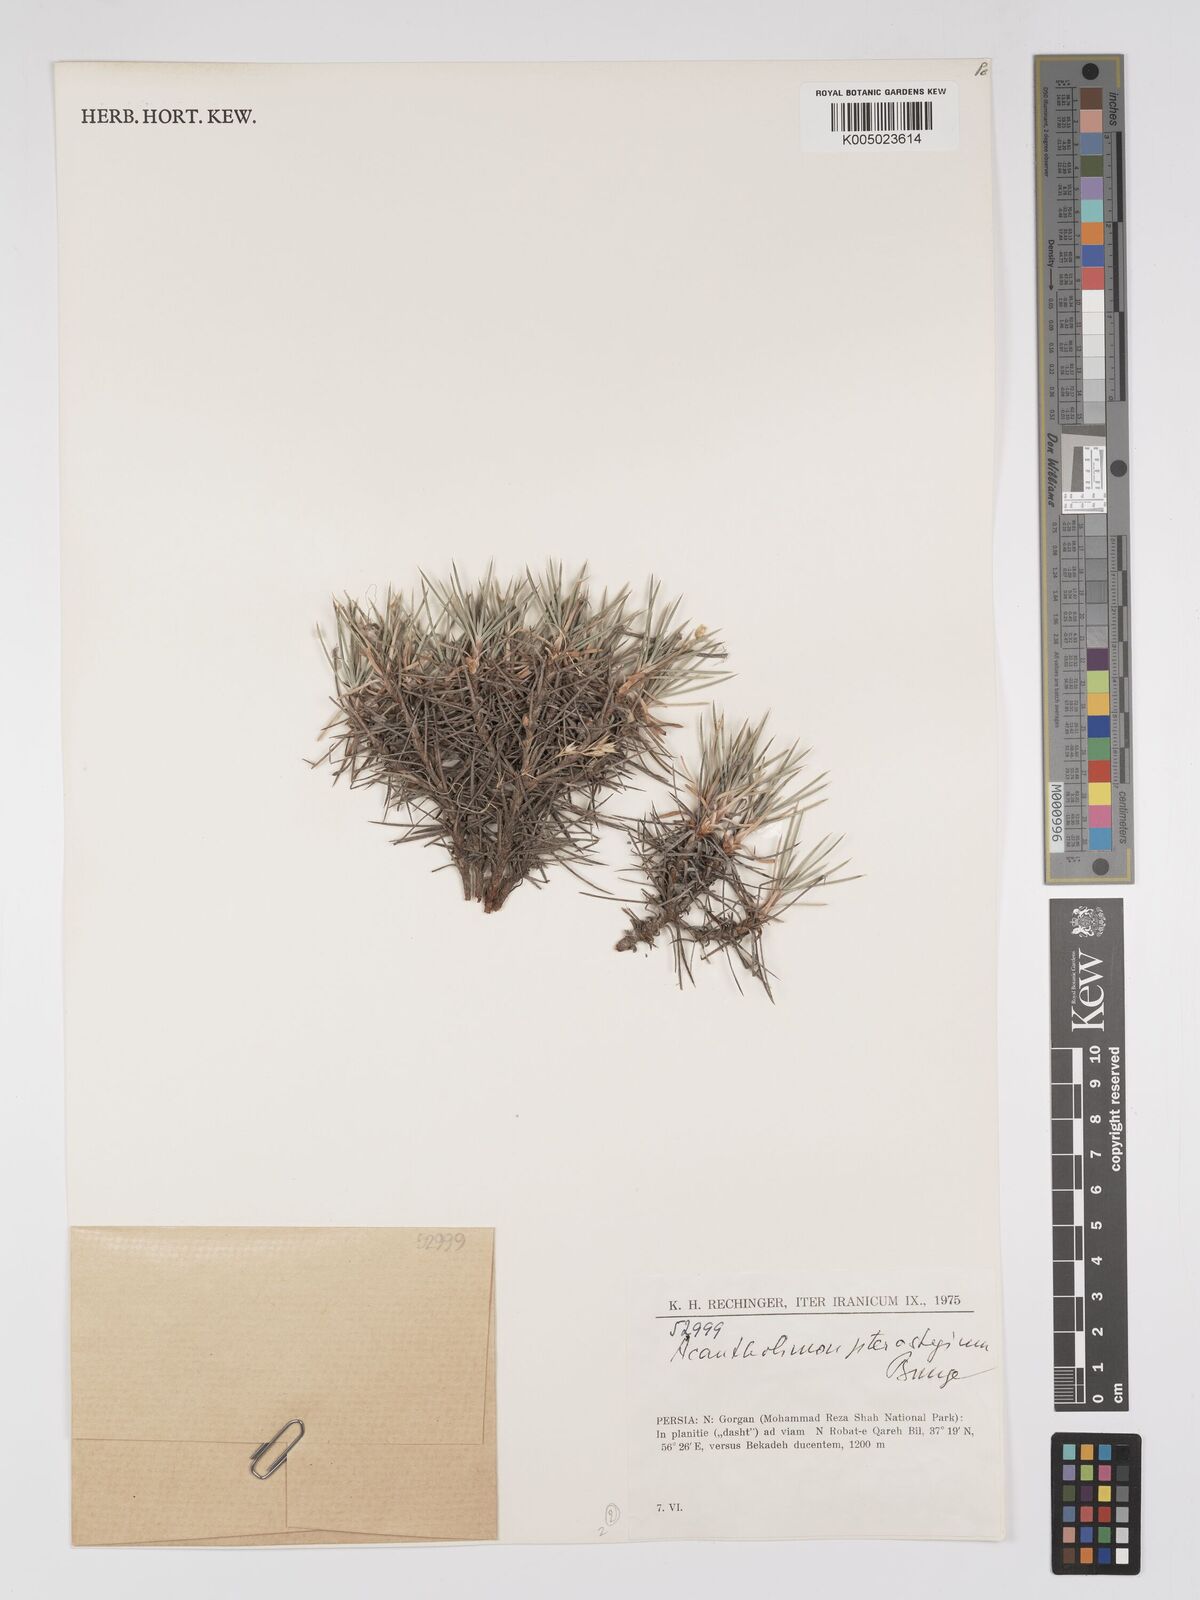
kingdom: Plantae
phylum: Tracheophyta
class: Magnoliopsida
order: Caryophyllales
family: Plumbaginaceae
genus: Acantholimon
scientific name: Acantholimon pterostegium
